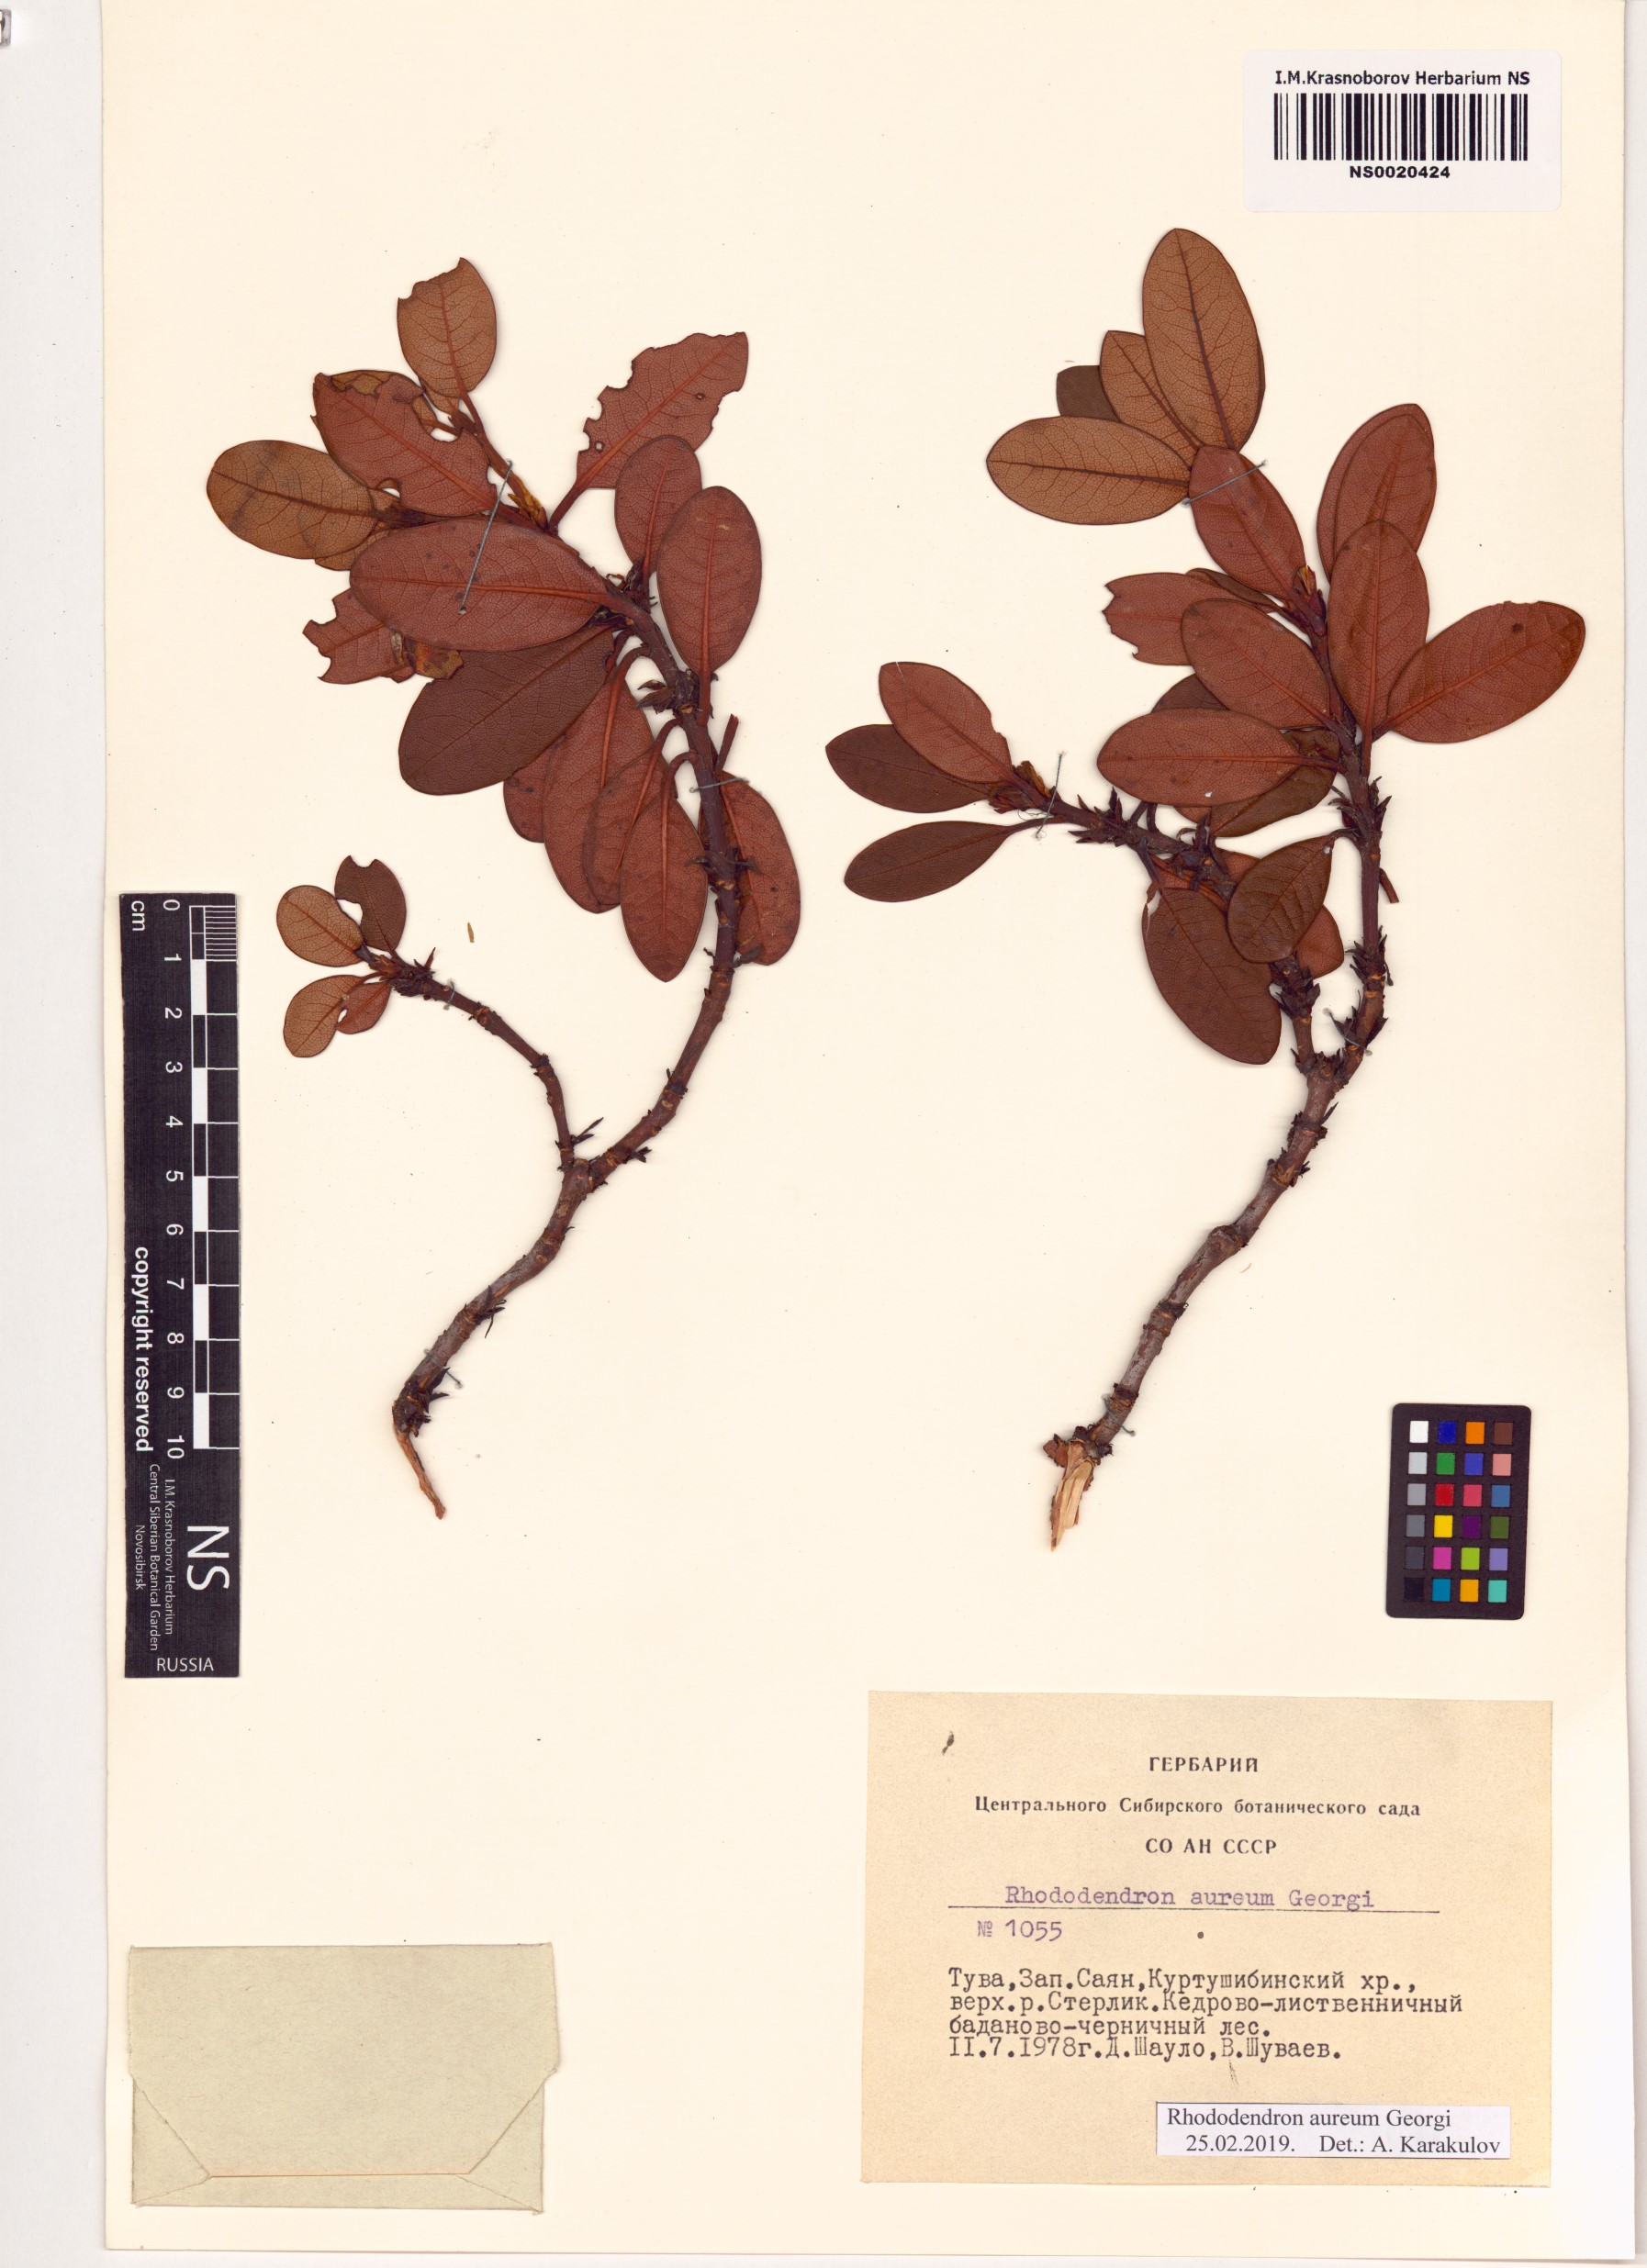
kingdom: Plantae
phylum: Tracheophyta
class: Magnoliopsida
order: Ericales
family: Ericaceae
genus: Rhododendron
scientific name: Rhododendron aureum
